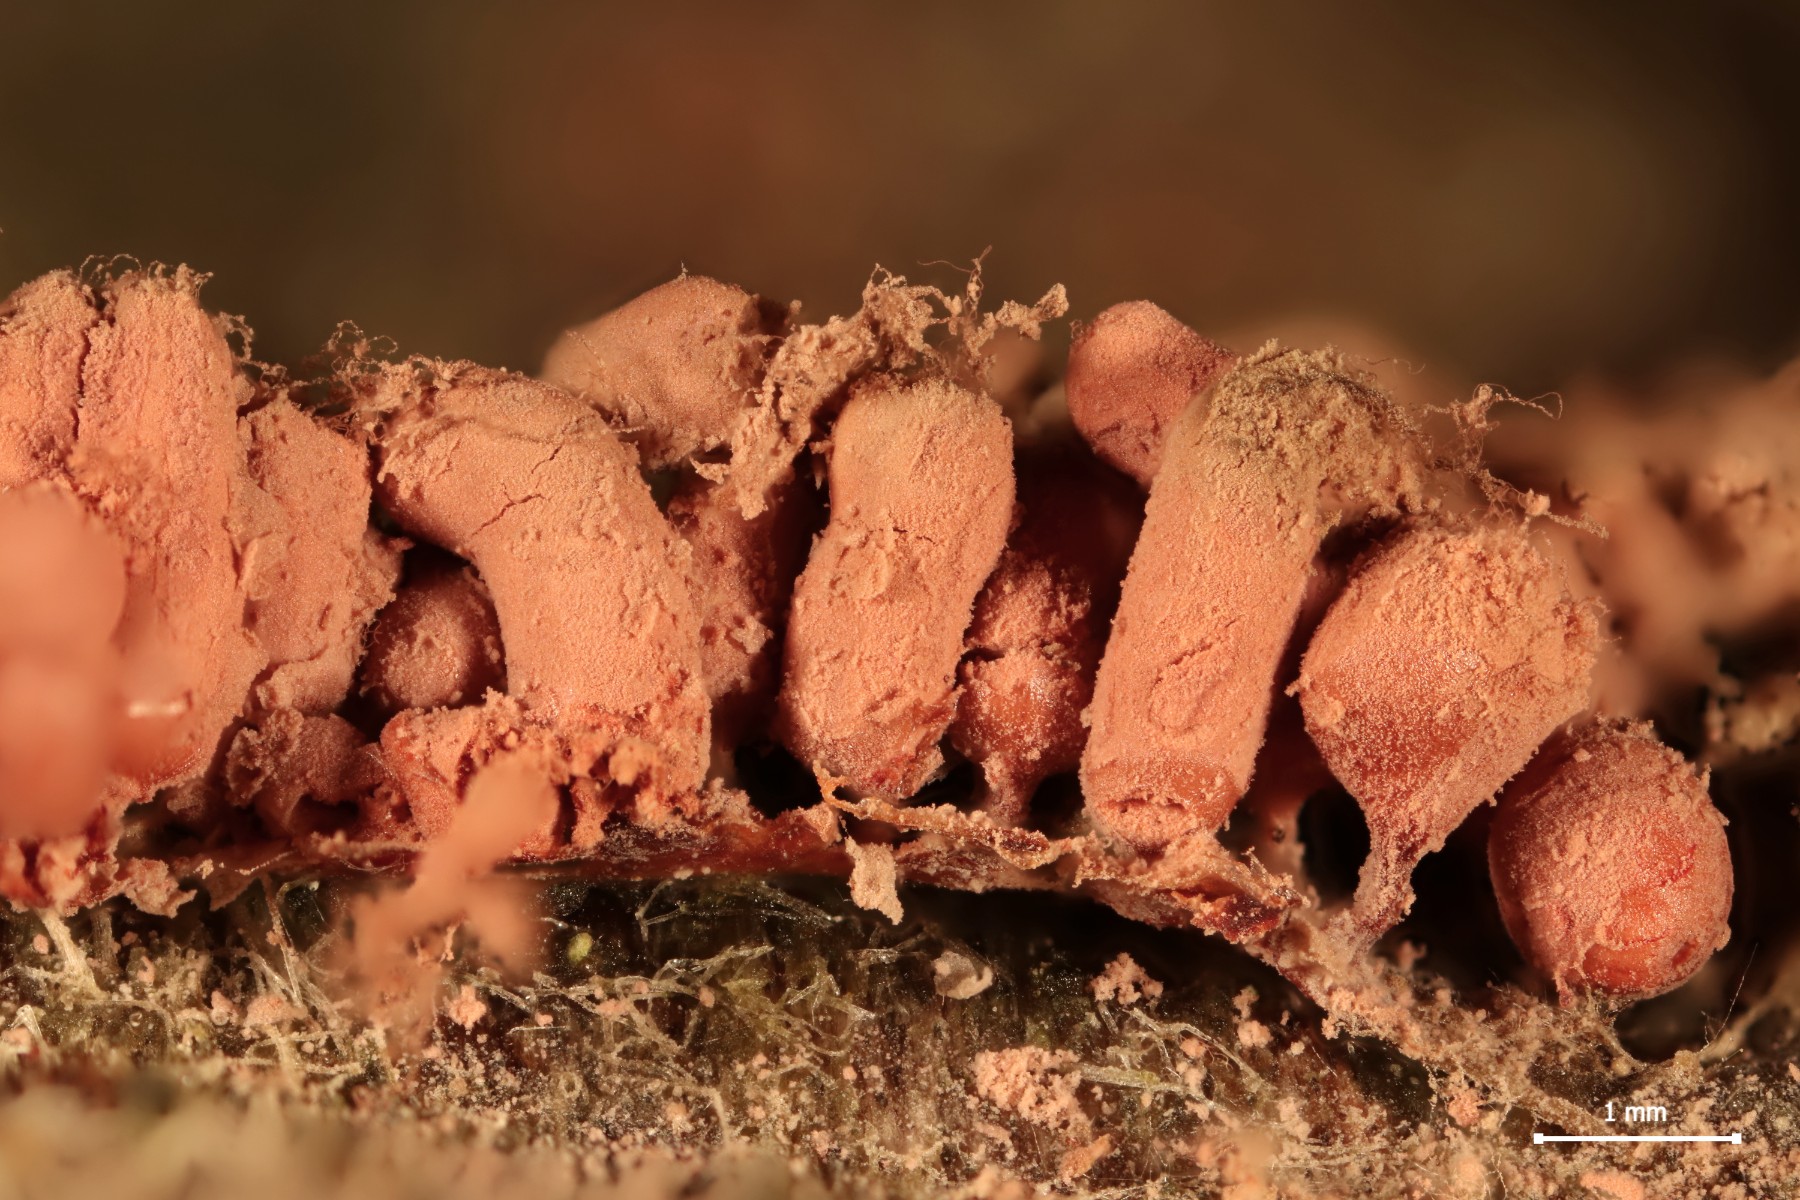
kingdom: Protozoa
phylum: Mycetozoa
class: Myxomycetes
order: Trichiales
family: Arcyriaceae
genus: Arcyria
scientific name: Arcyria incarnata
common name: rosa skålsvøb
